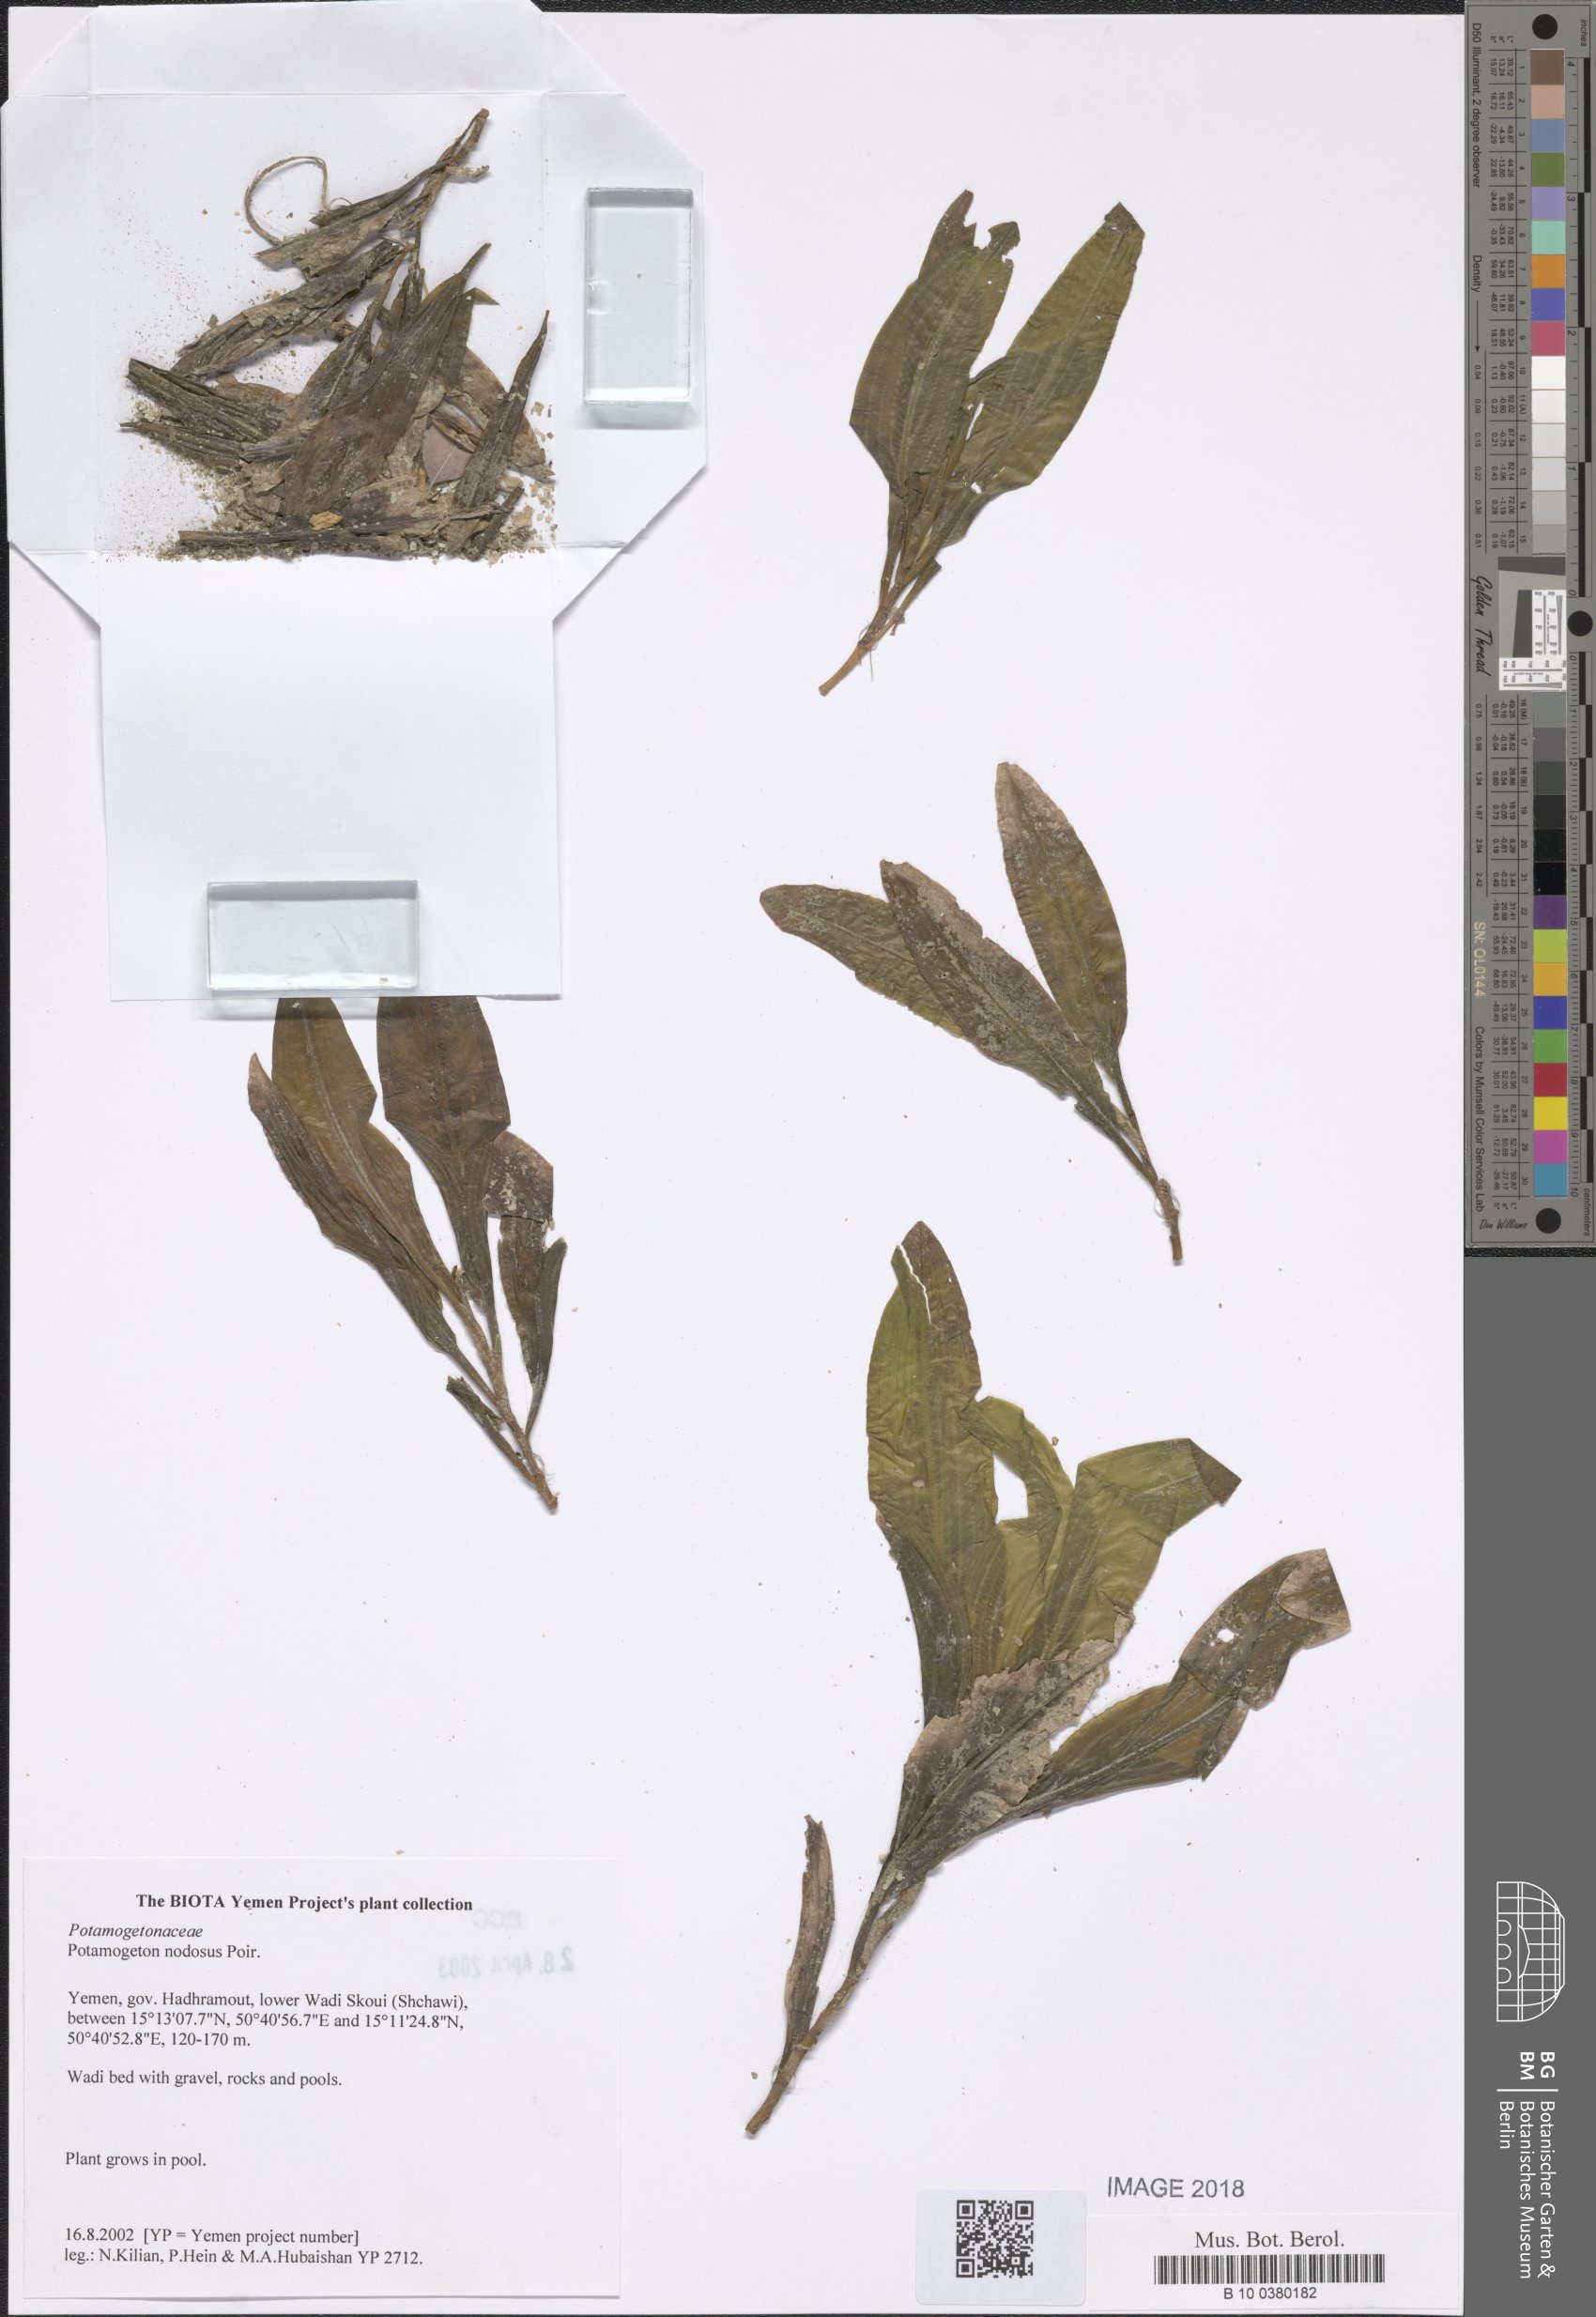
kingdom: Plantae
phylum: Tracheophyta
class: Liliopsida
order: Alismatales
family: Potamogetonaceae
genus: Potamogeton
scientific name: Potamogeton nodosus
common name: Loddon pondweed
